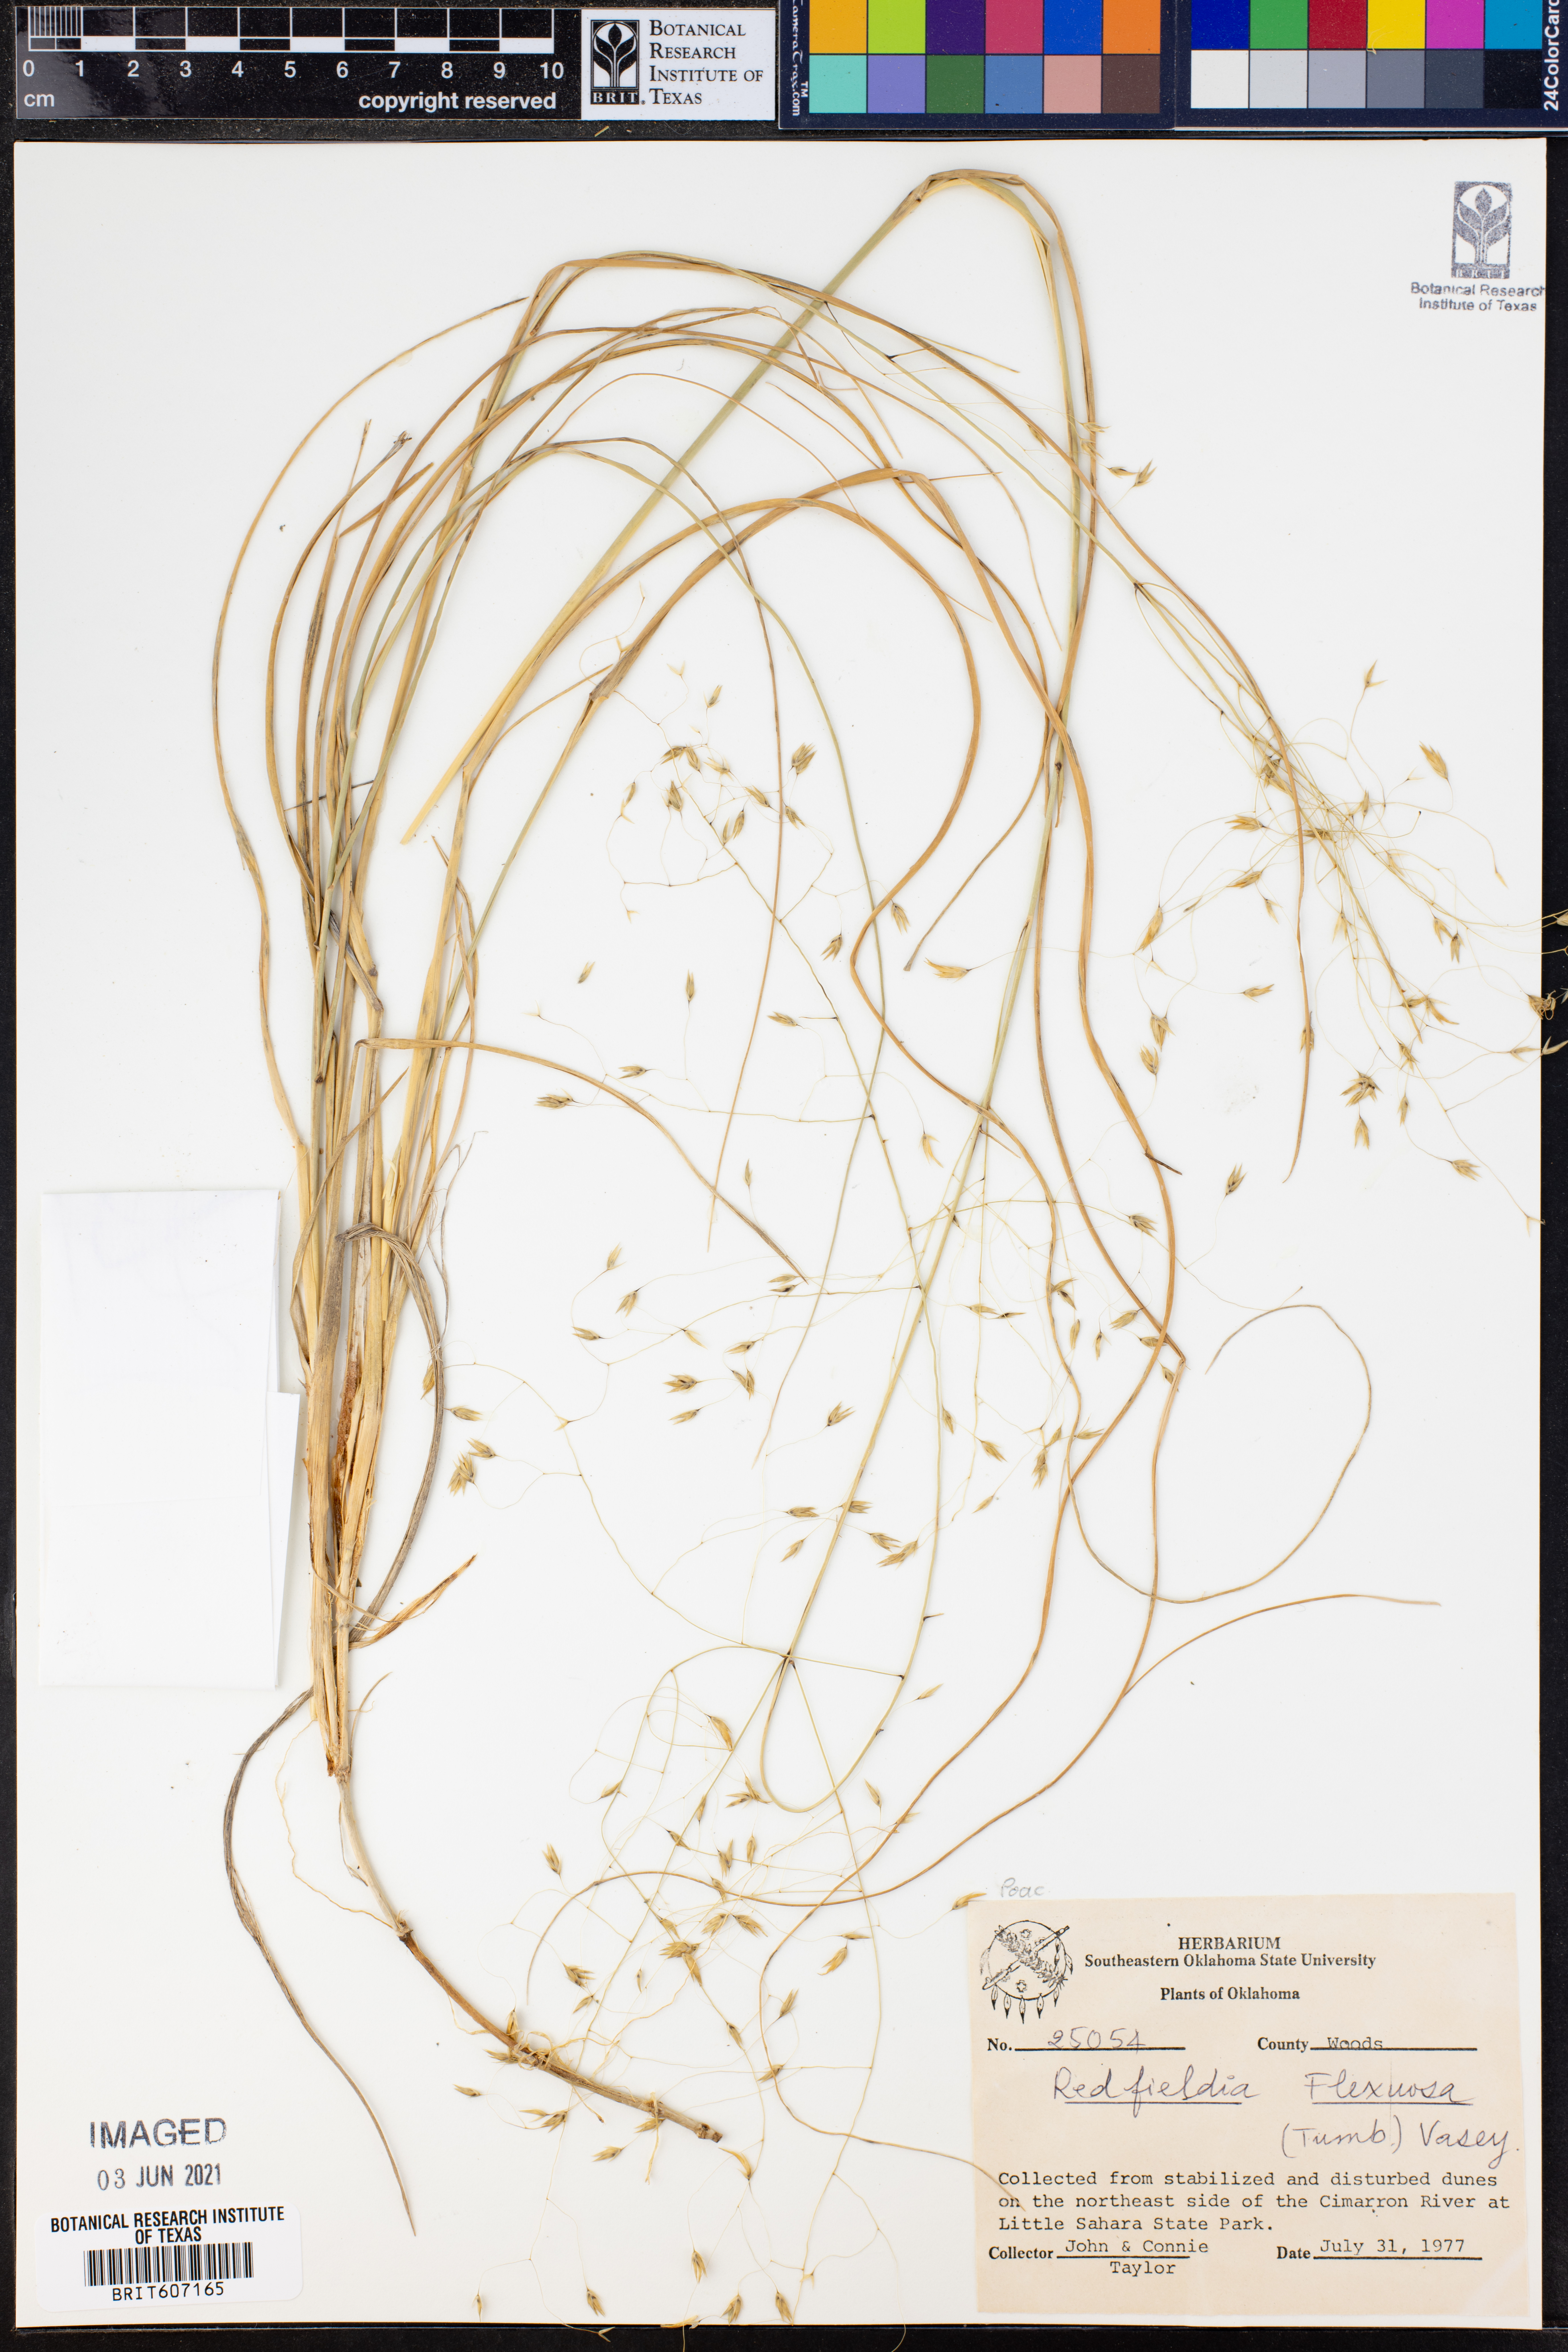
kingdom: Plantae
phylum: Tracheophyta
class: Liliopsida
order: Poales
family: Poaceae
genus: Muhlenbergia
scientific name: Muhlenbergia multiflora
